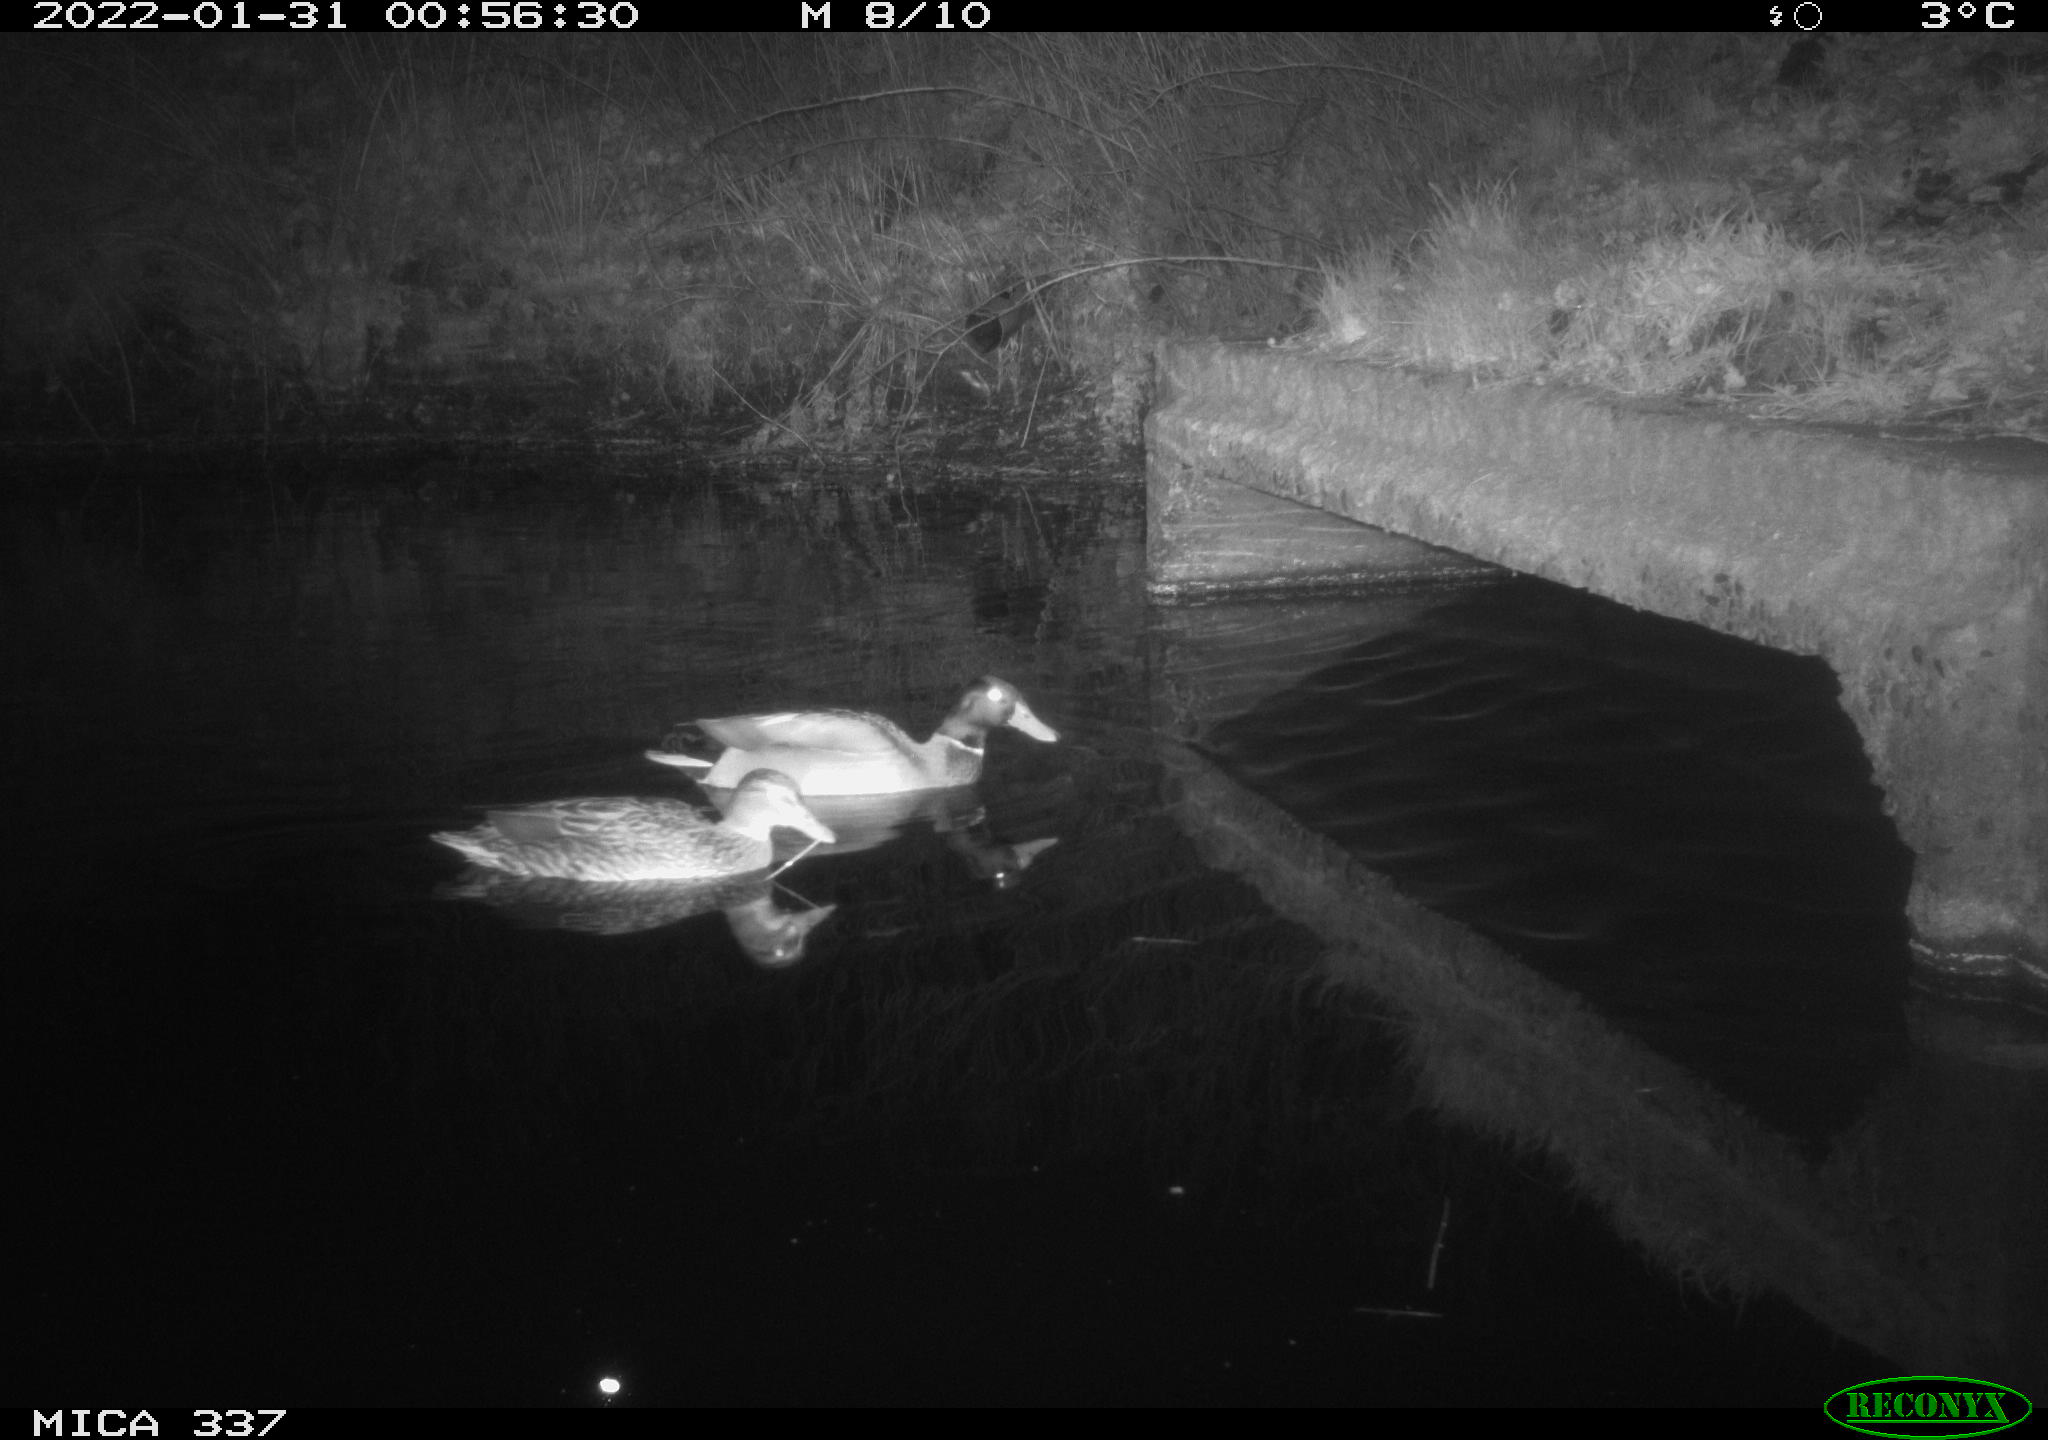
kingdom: Animalia
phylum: Chordata
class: Aves
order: Anseriformes
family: Anatidae
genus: Anas
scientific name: Anas platyrhynchos
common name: Mallard
